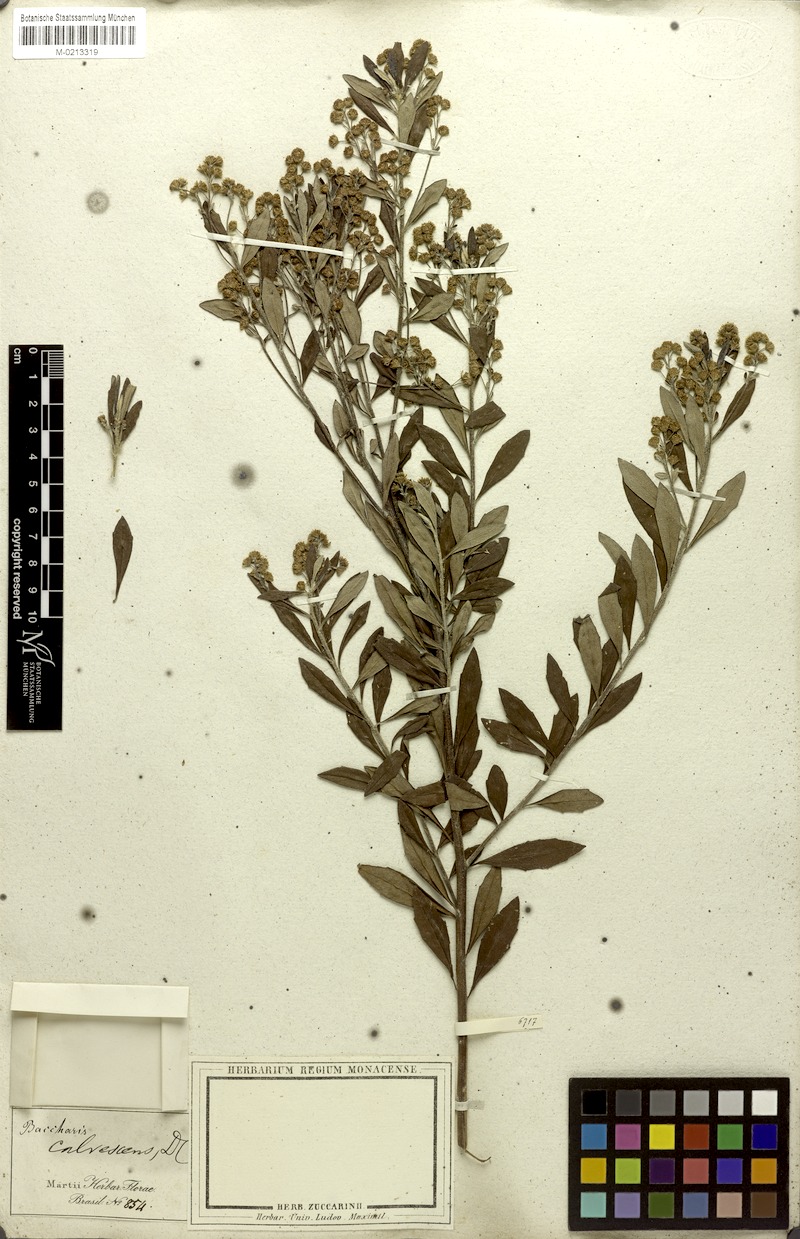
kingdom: Plantae
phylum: Tracheophyta
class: Magnoliopsida
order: Asterales
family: Asteraceae
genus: Baccharis
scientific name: Baccharis calvescens
